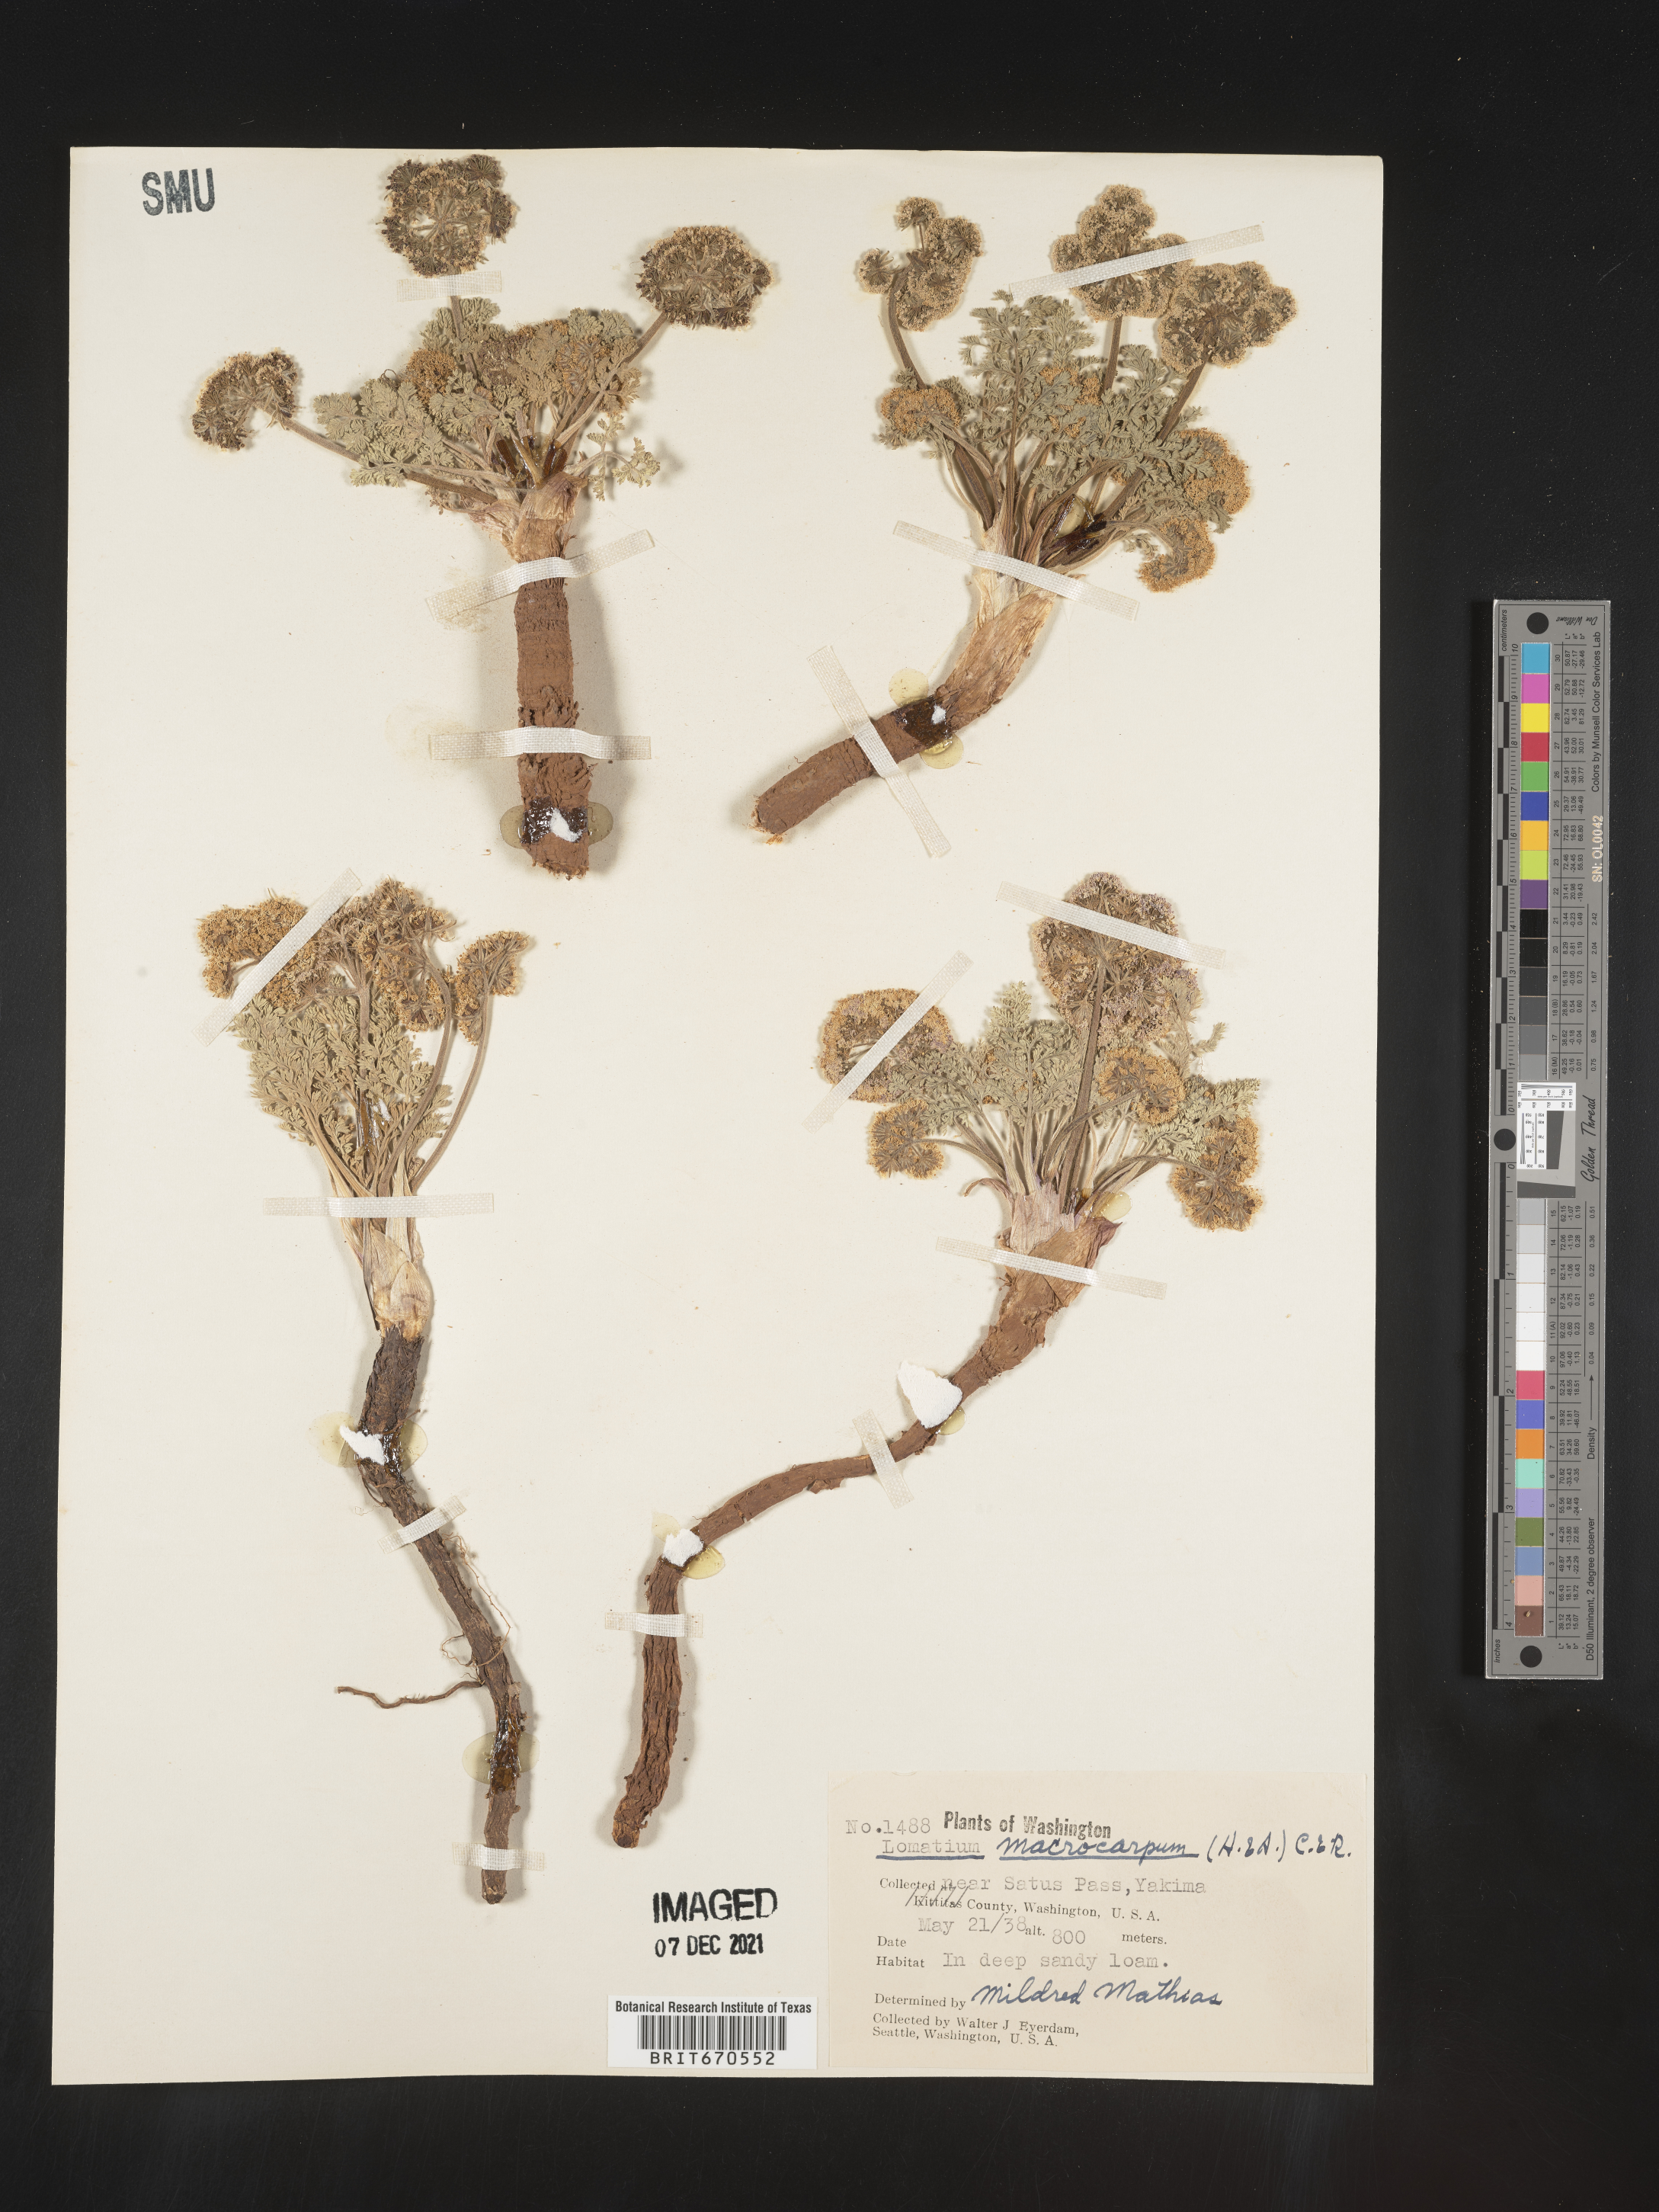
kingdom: Plantae
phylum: Tracheophyta
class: Magnoliopsida
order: Apiales
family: Apiaceae
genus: Lomatium
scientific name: Lomatium macrocarpum
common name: Big-seed biscuitroot
